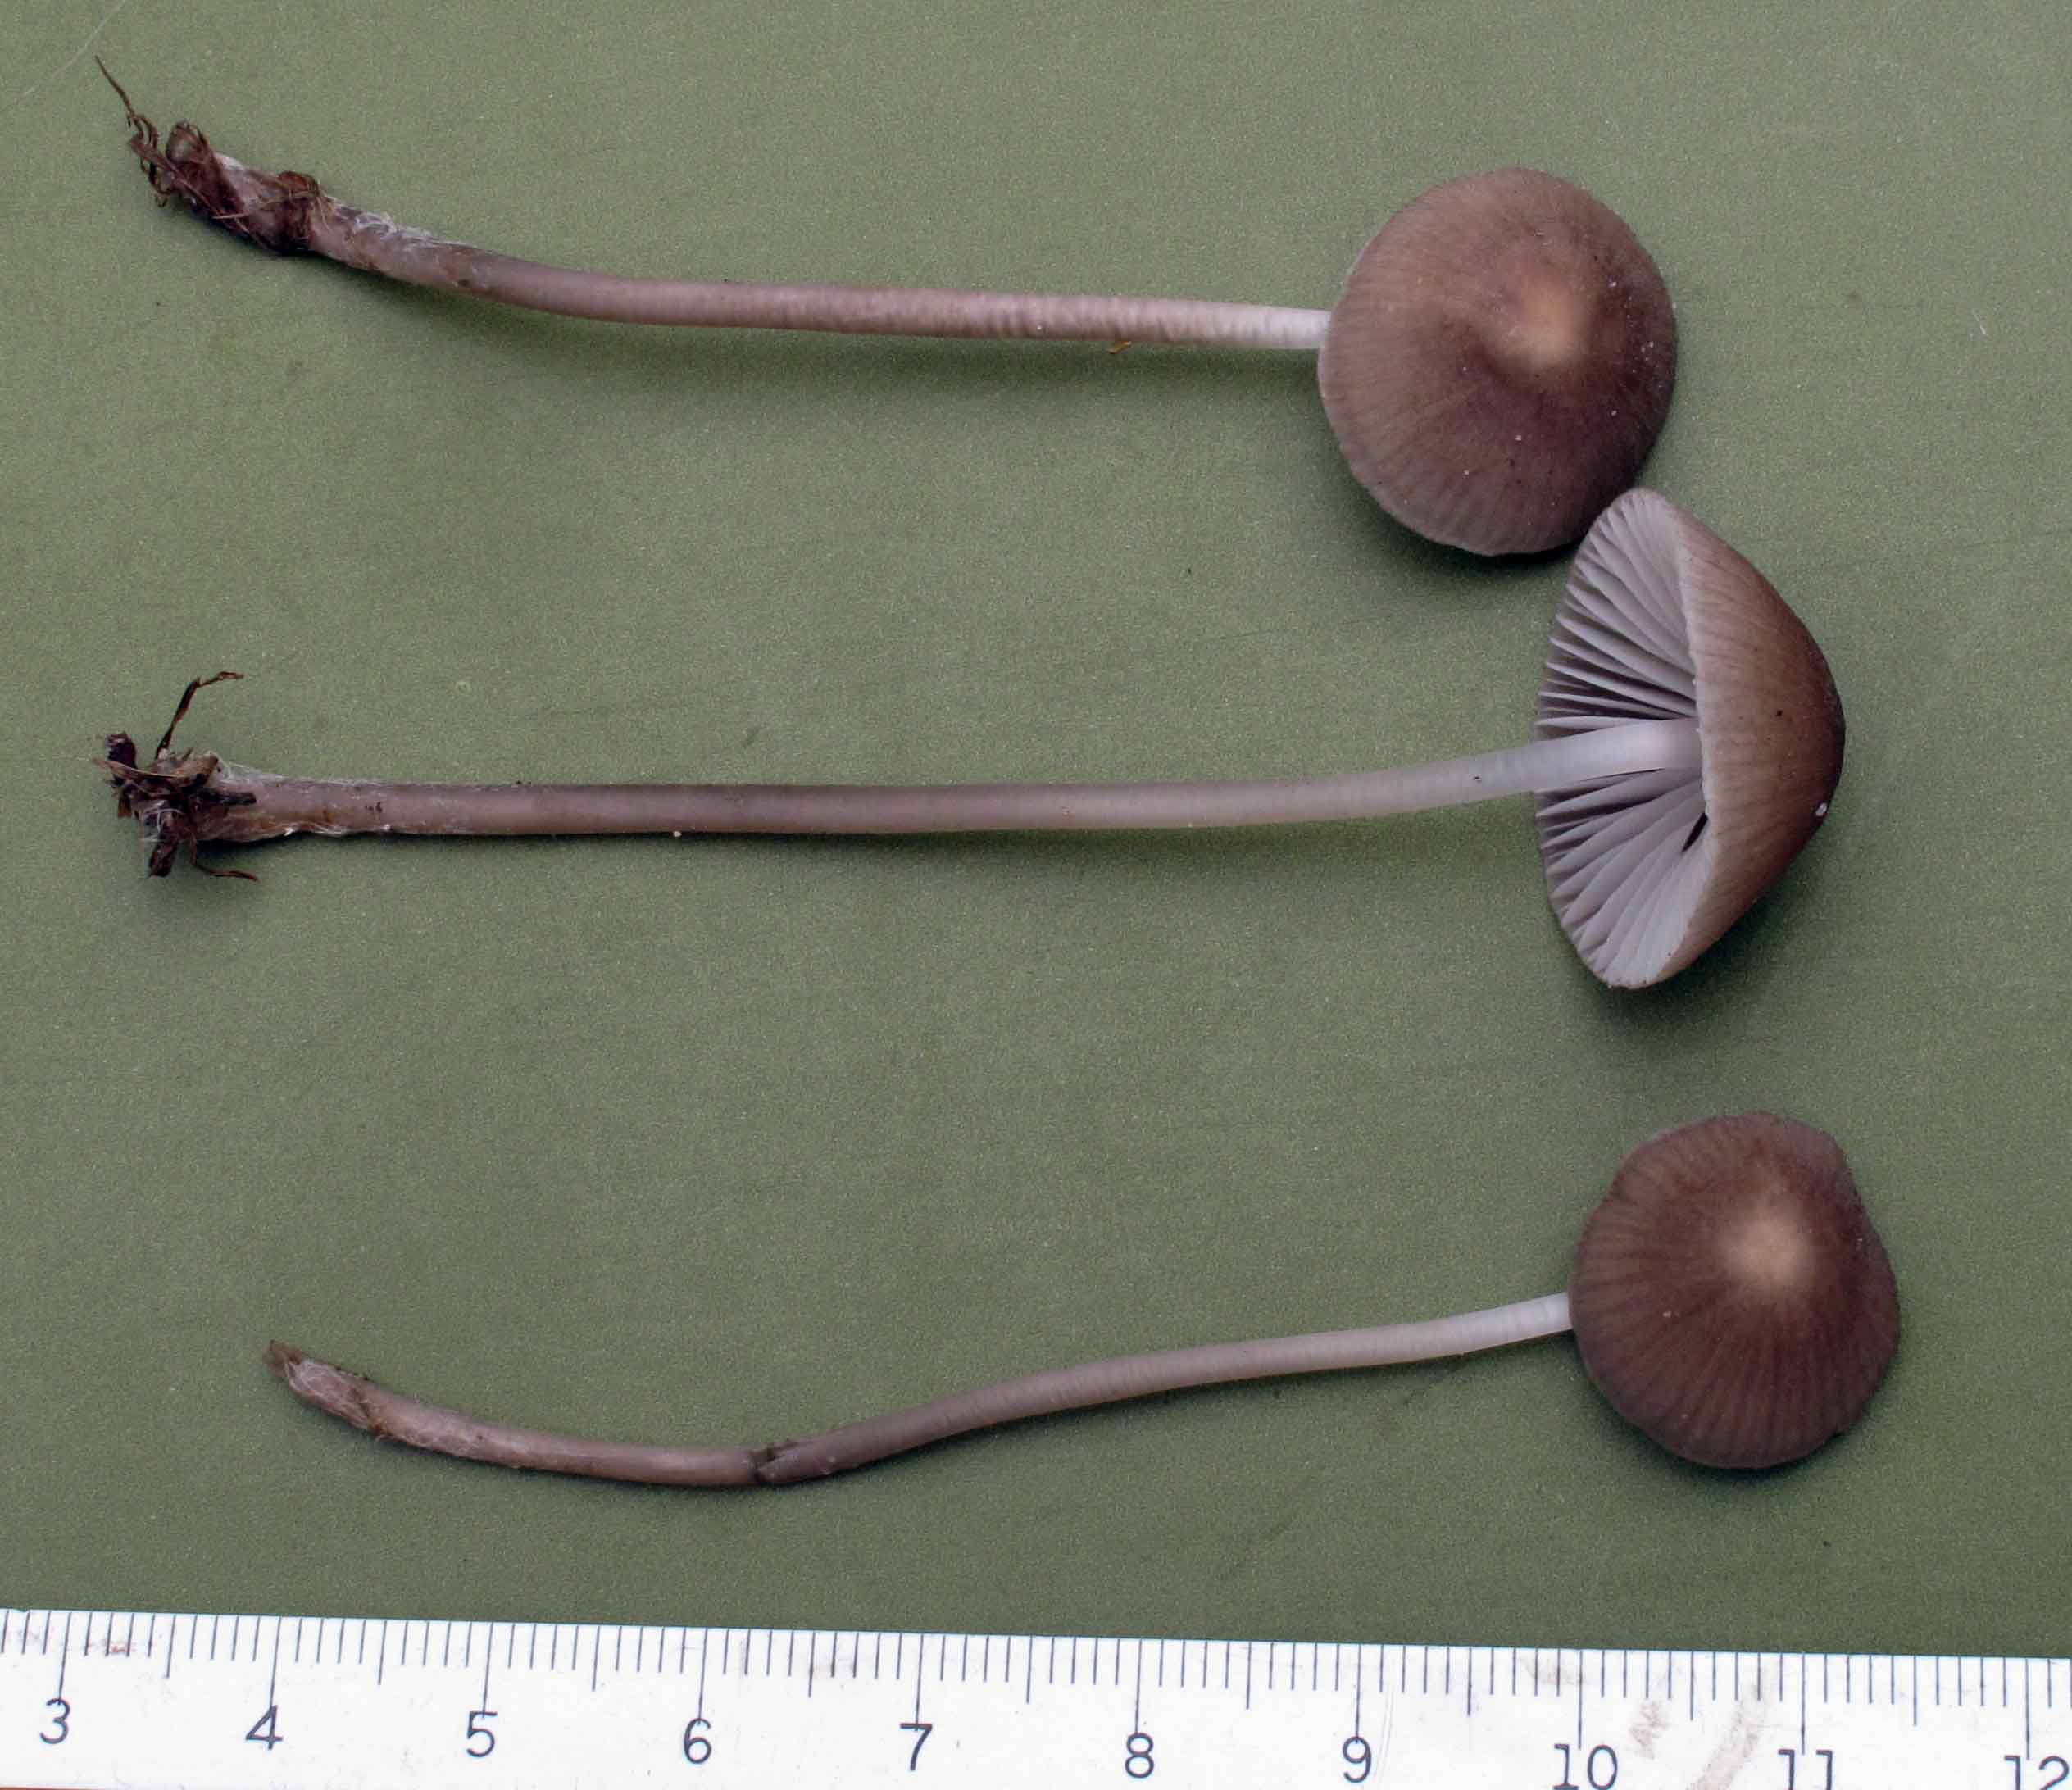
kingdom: Fungi
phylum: Basidiomycota
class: Agaricomycetes
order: Agaricales
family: Mycenaceae
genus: Mycena
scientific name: Mycena aetites
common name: plæne-huesvamp
